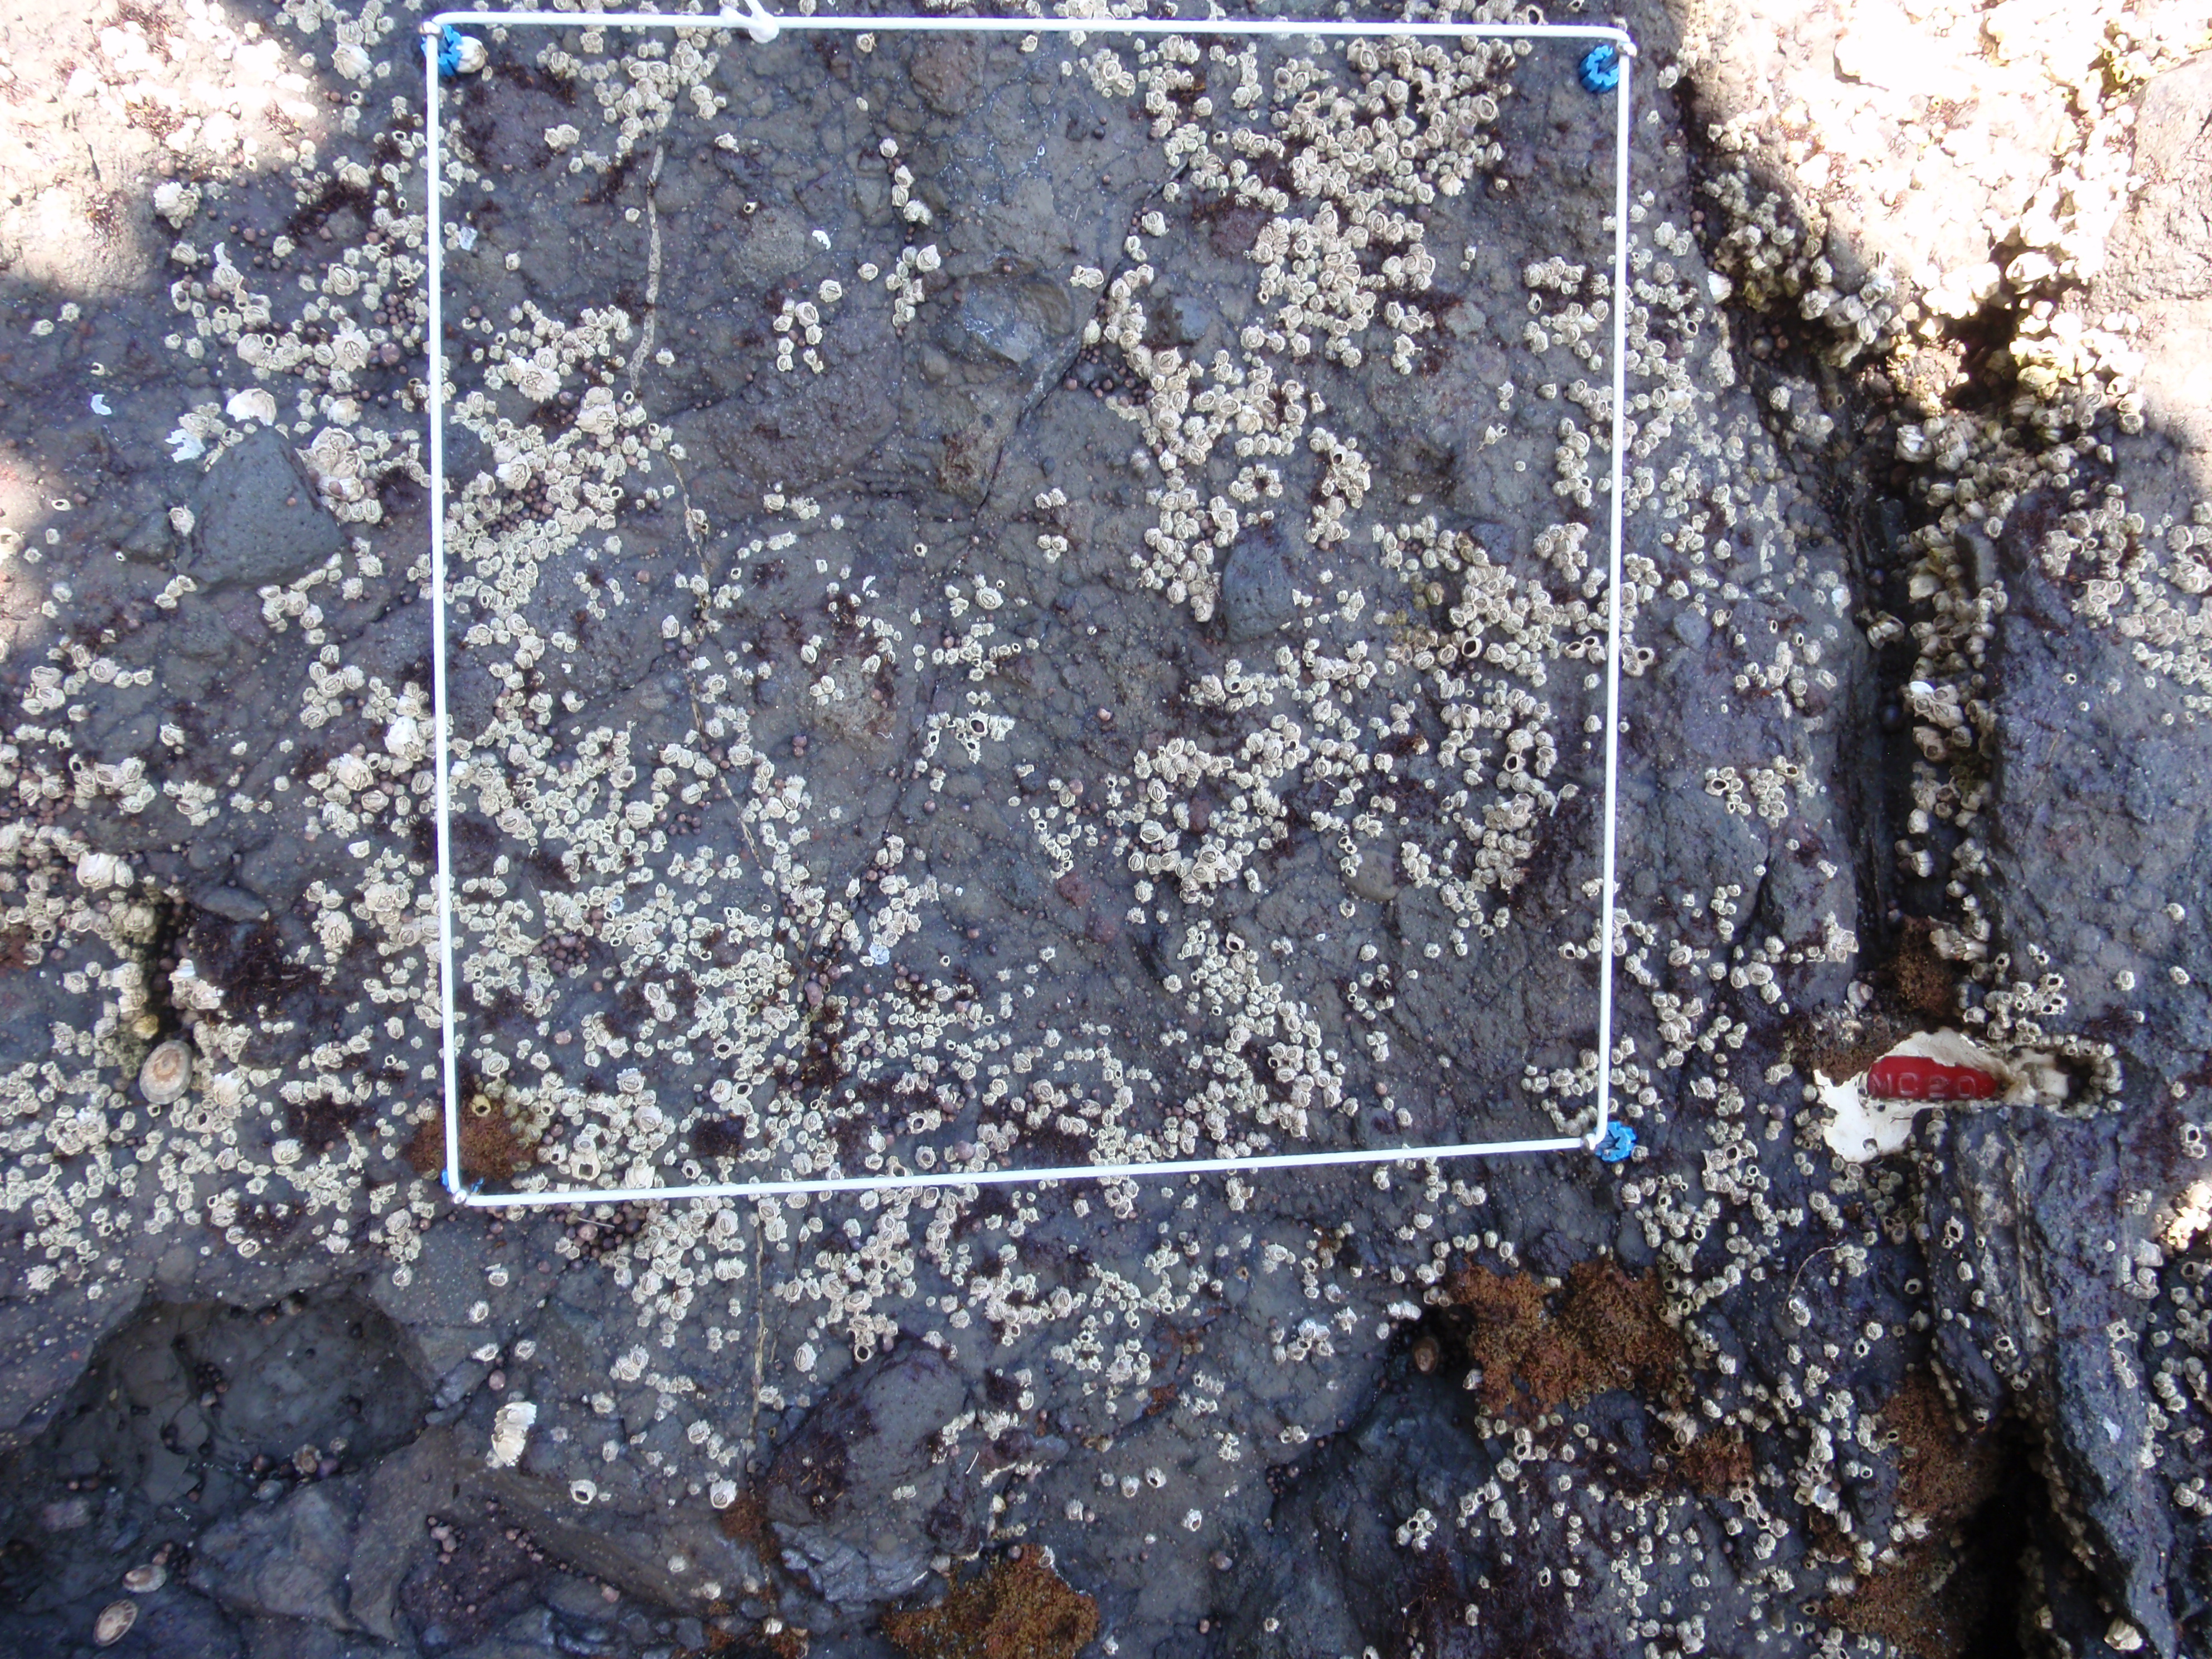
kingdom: Chromista
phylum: Ochrophyta
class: Phaeophyceae
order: Scytosiphonales
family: Scytosiphonaceae
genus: Analipus
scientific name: Analipus japonicus
